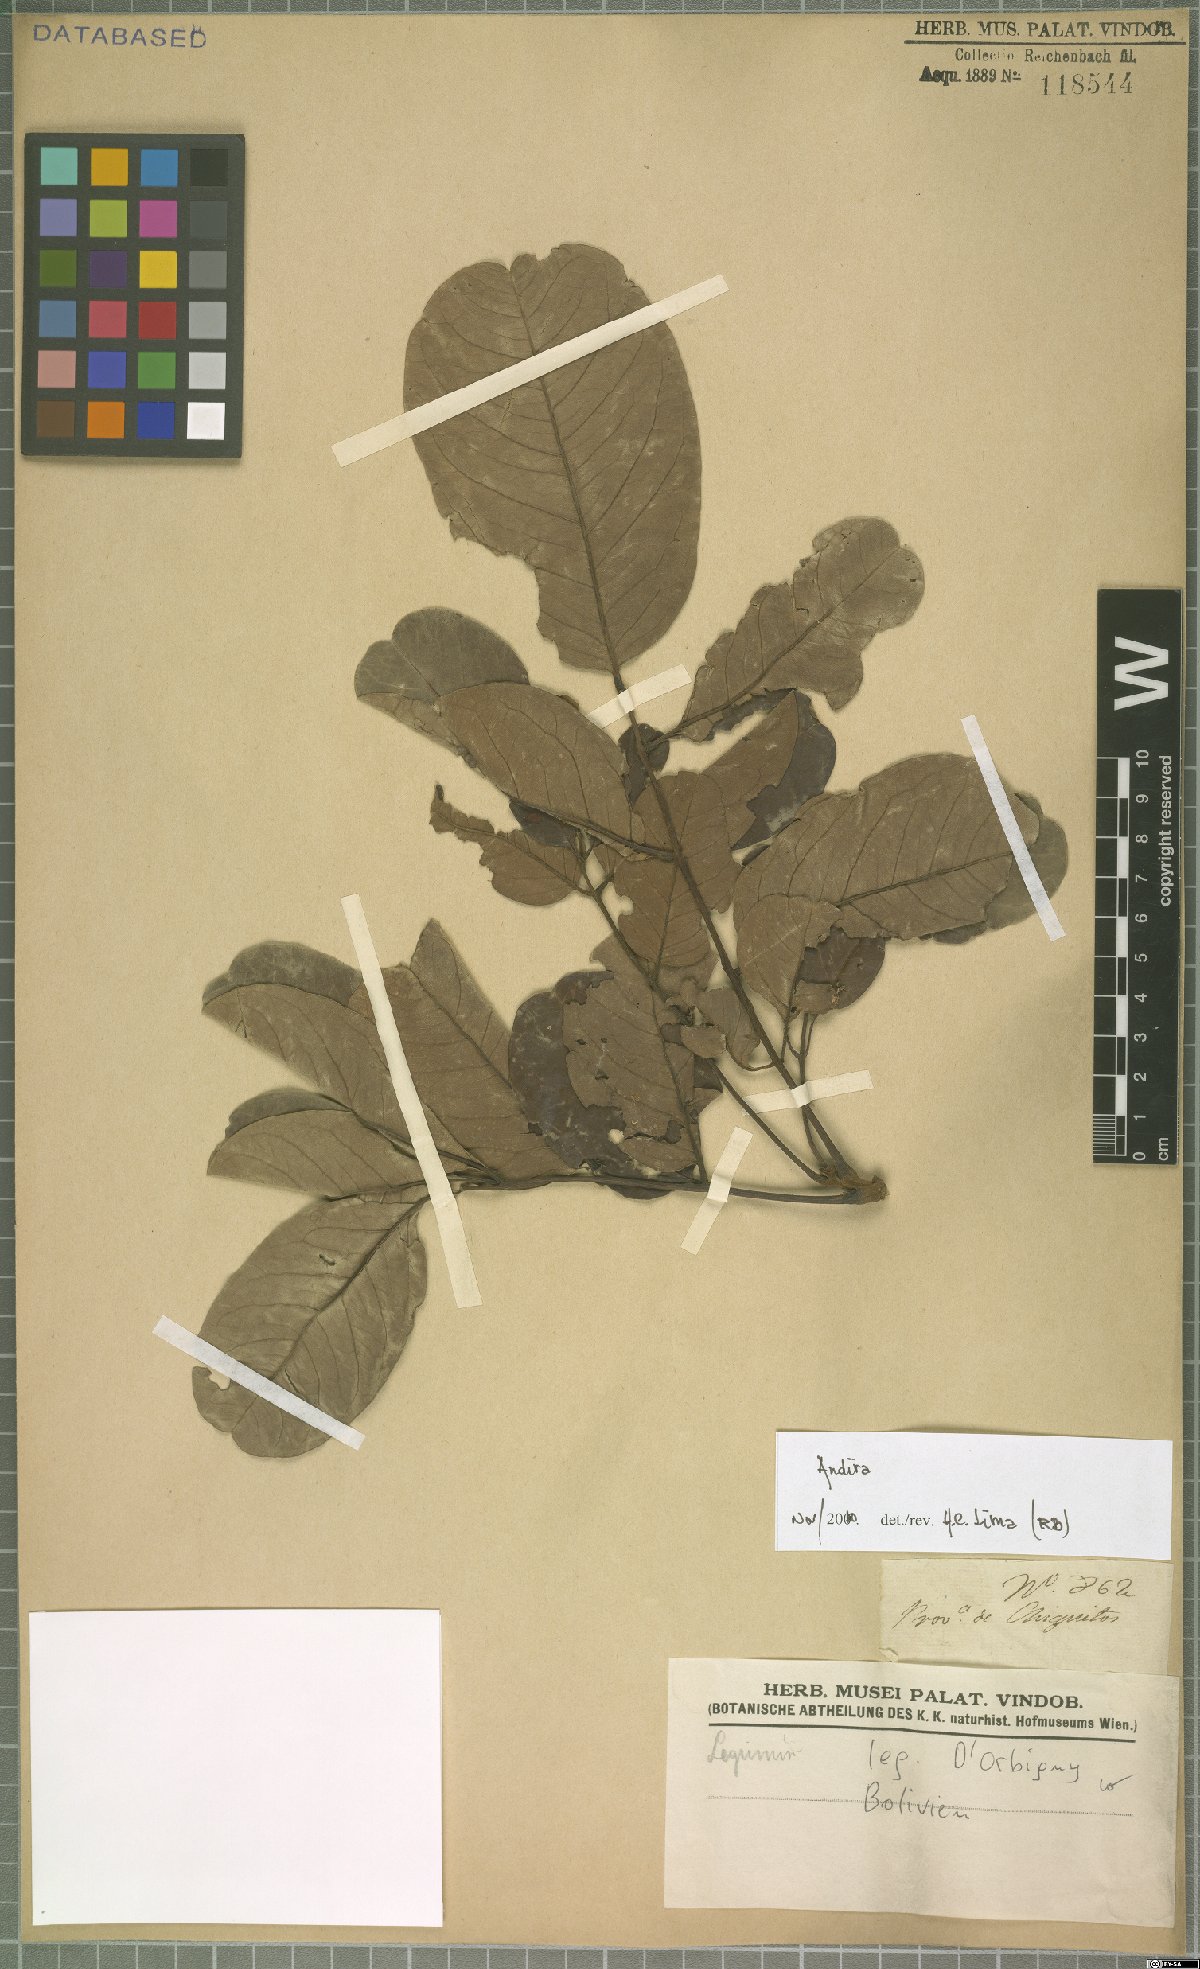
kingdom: Plantae
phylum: Tracheophyta
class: Magnoliopsida
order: Fabales
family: Fabaceae
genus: Andira
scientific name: Andira
